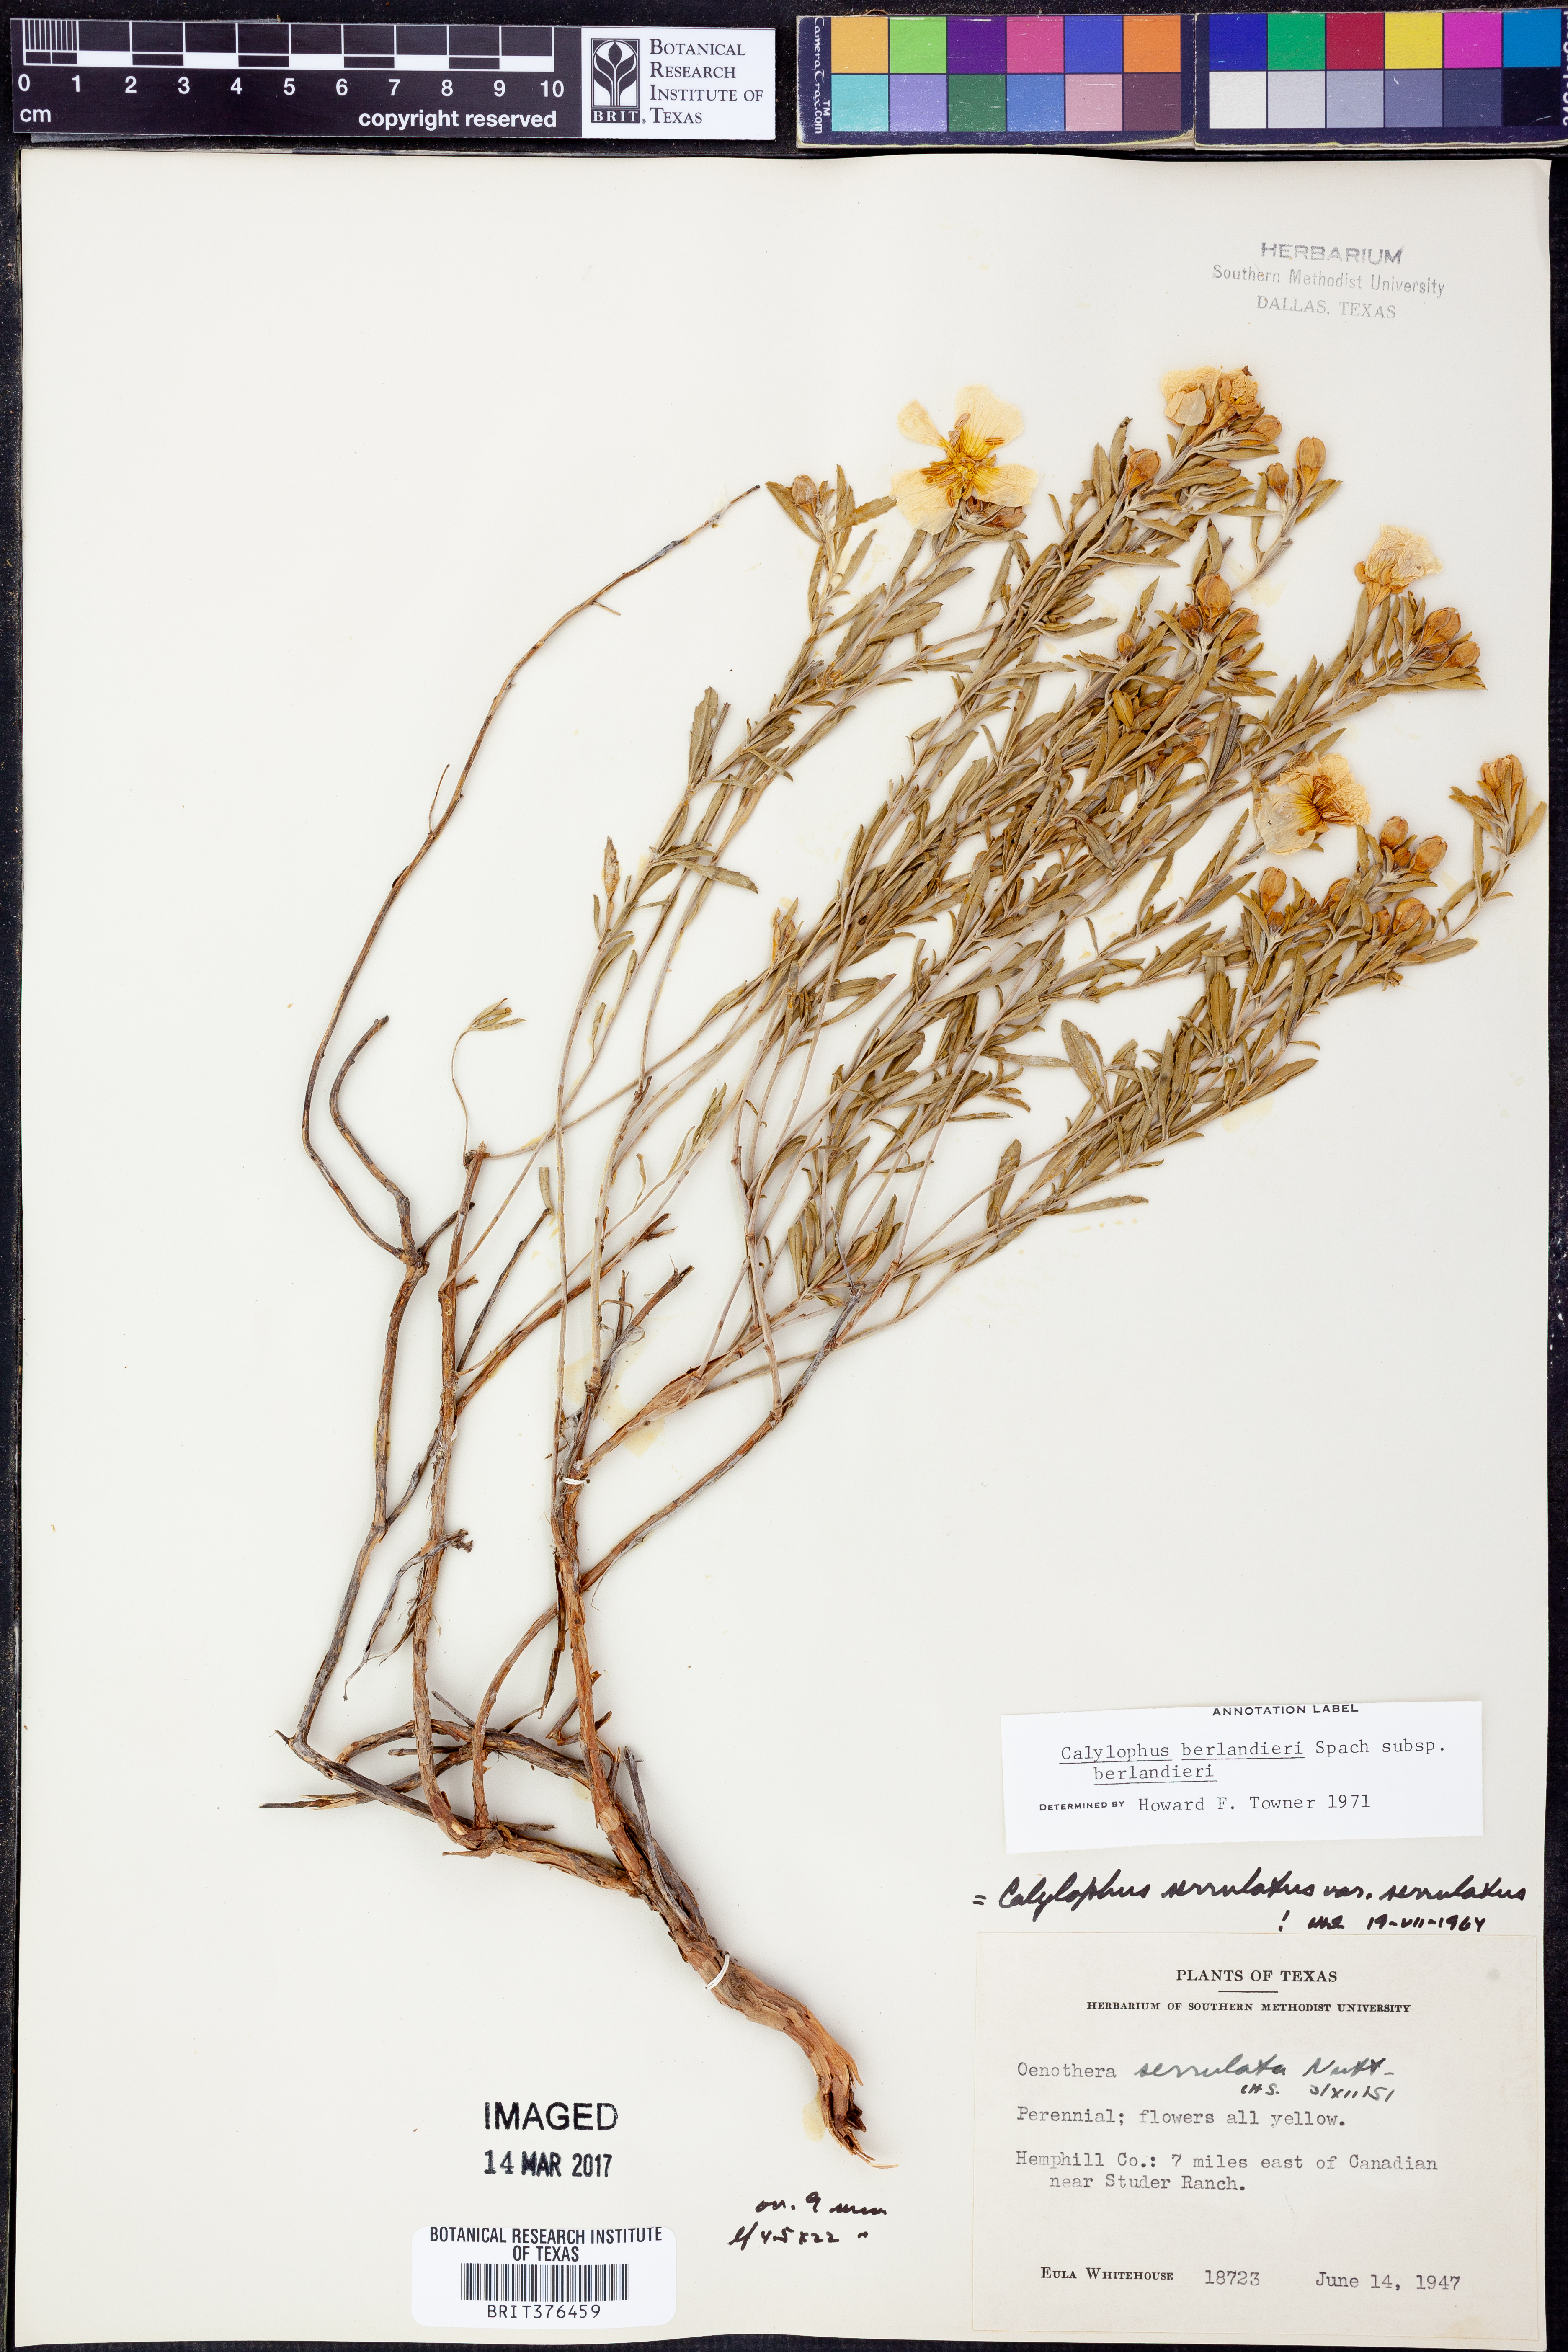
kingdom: Plantae
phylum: Tracheophyta
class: Magnoliopsida
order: Myrtales
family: Onagraceae
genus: Oenothera
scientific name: Oenothera capillifolia
